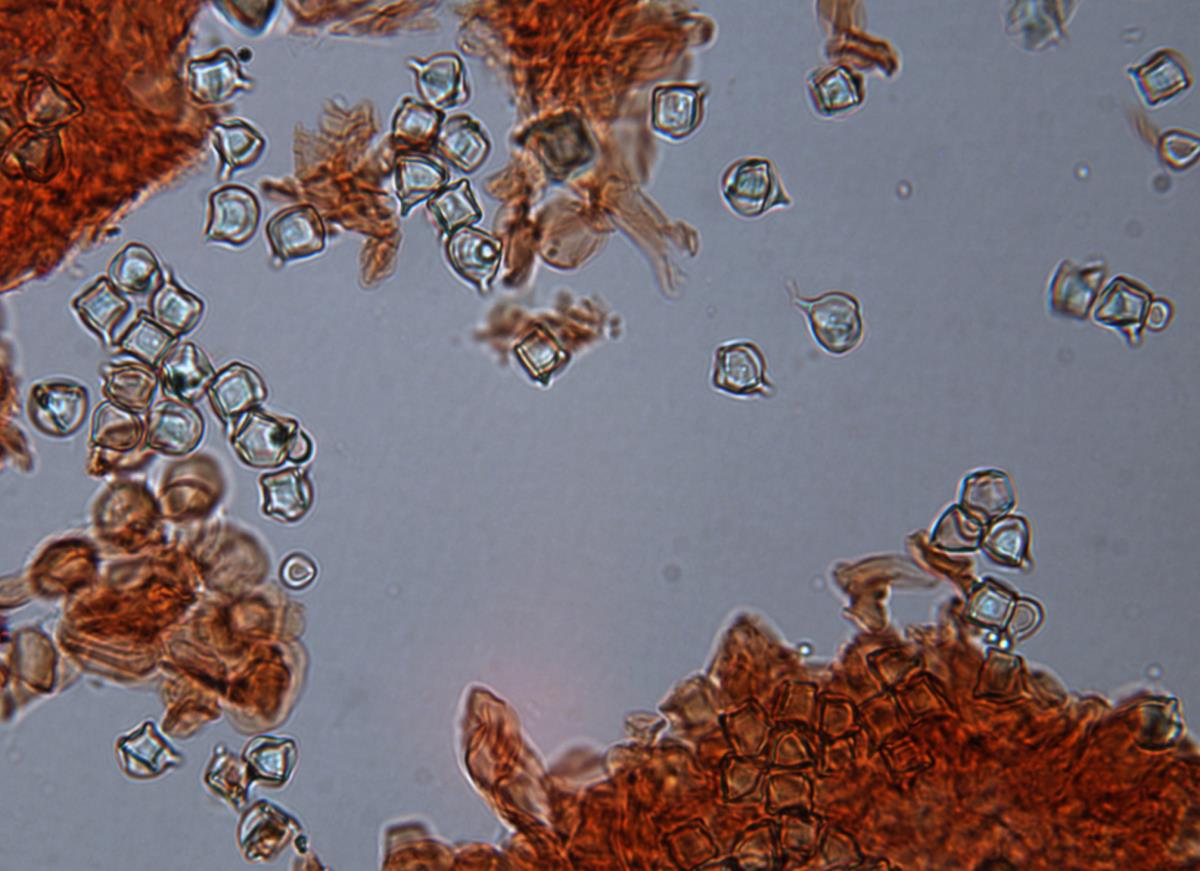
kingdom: Fungi
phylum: Basidiomycota
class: Agaricomycetes
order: Agaricales
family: Entolomataceae
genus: Entoloma
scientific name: Entoloma gasteromycetoides
